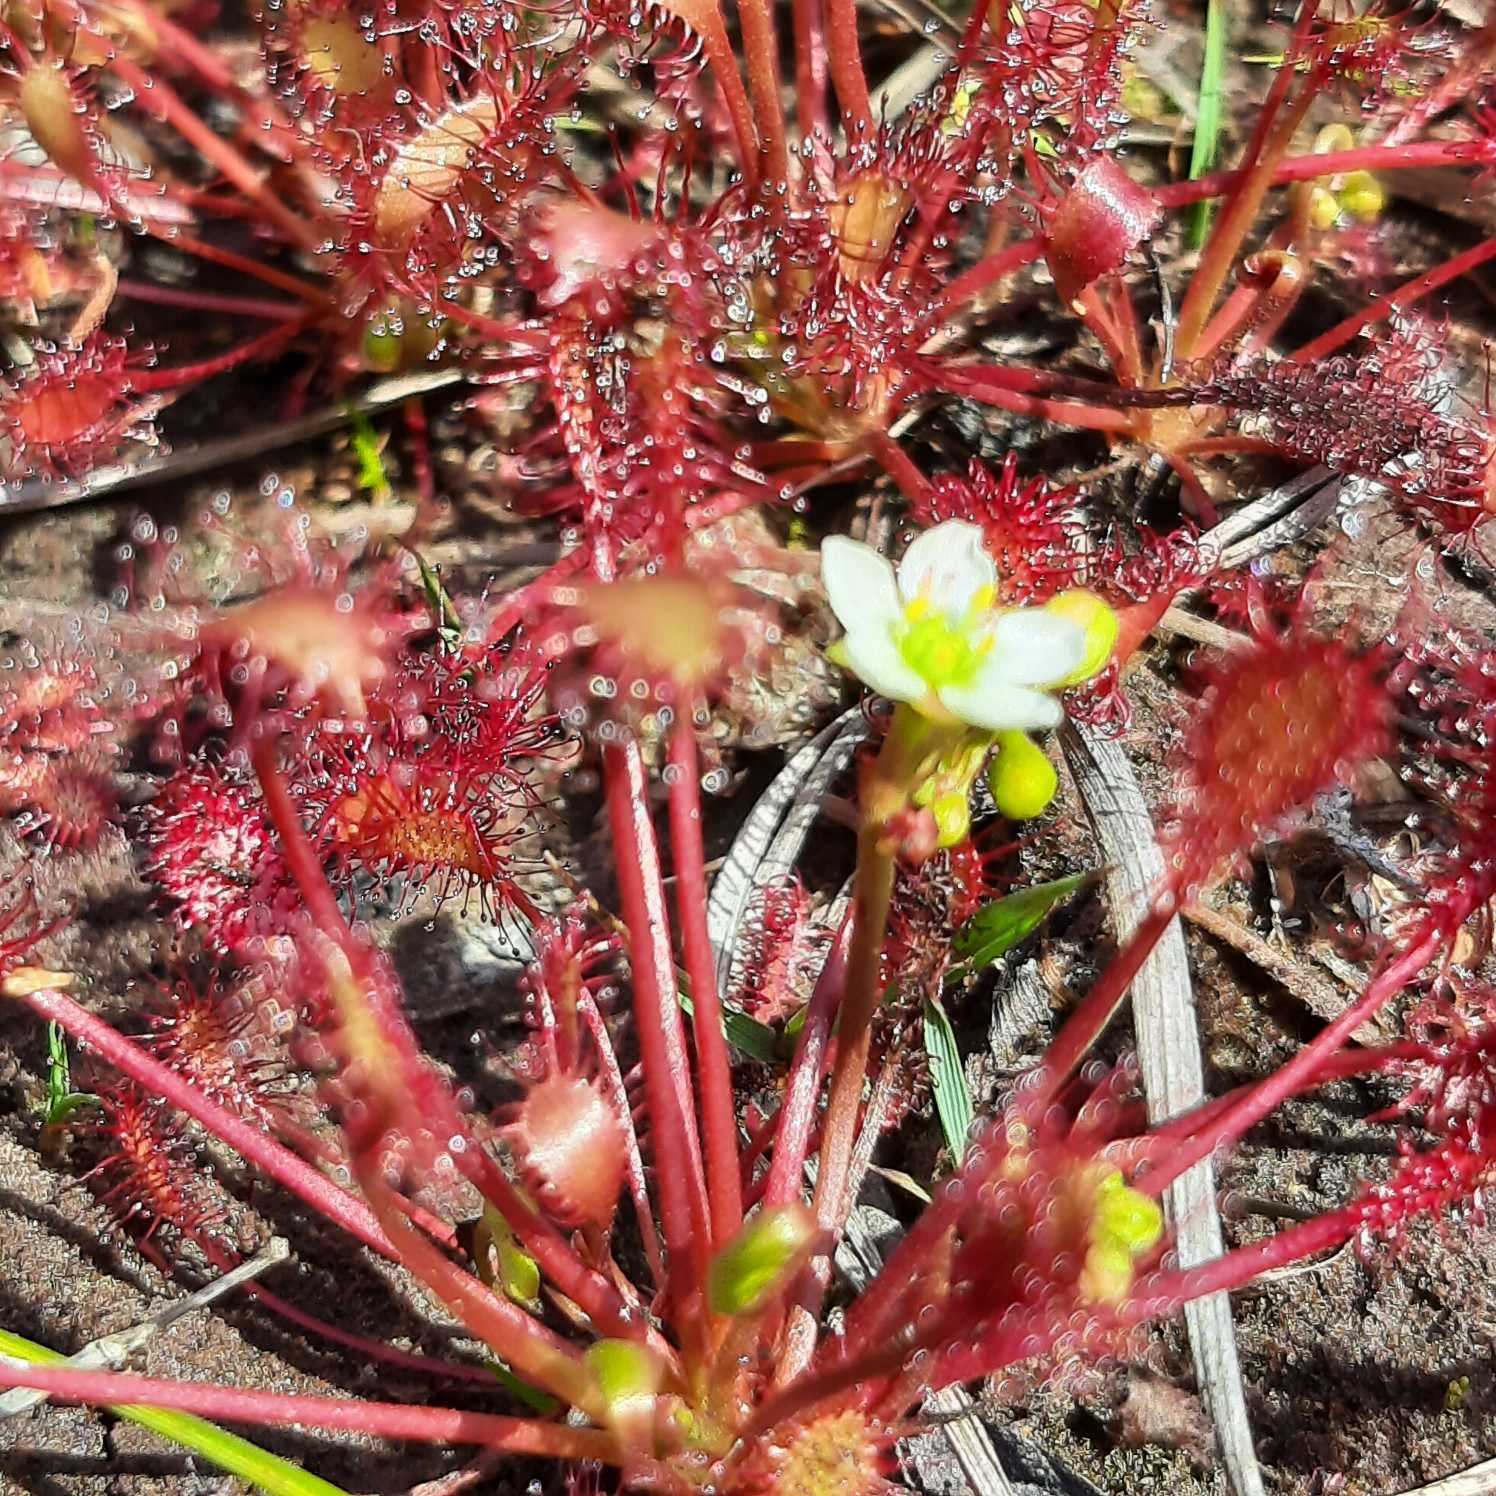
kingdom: Plantae
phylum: Tracheophyta
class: Magnoliopsida
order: Caryophyllales
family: Droseraceae
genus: Drosera
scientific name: Drosera intermedia
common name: Liden soldug
